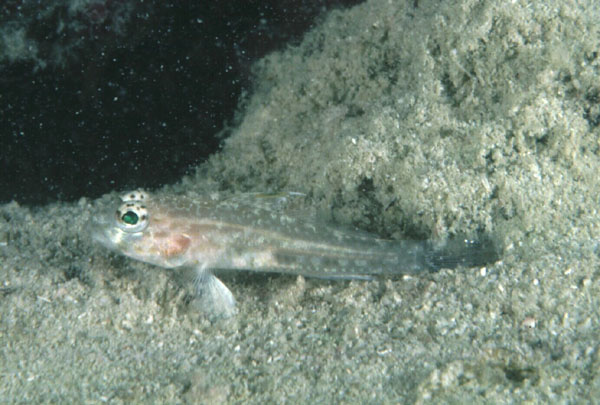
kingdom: Animalia
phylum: Chordata
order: Perciformes
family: Gobiidae
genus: Macrodontogobius
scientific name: Macrodontogobius wilburi
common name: Largetooth goby
